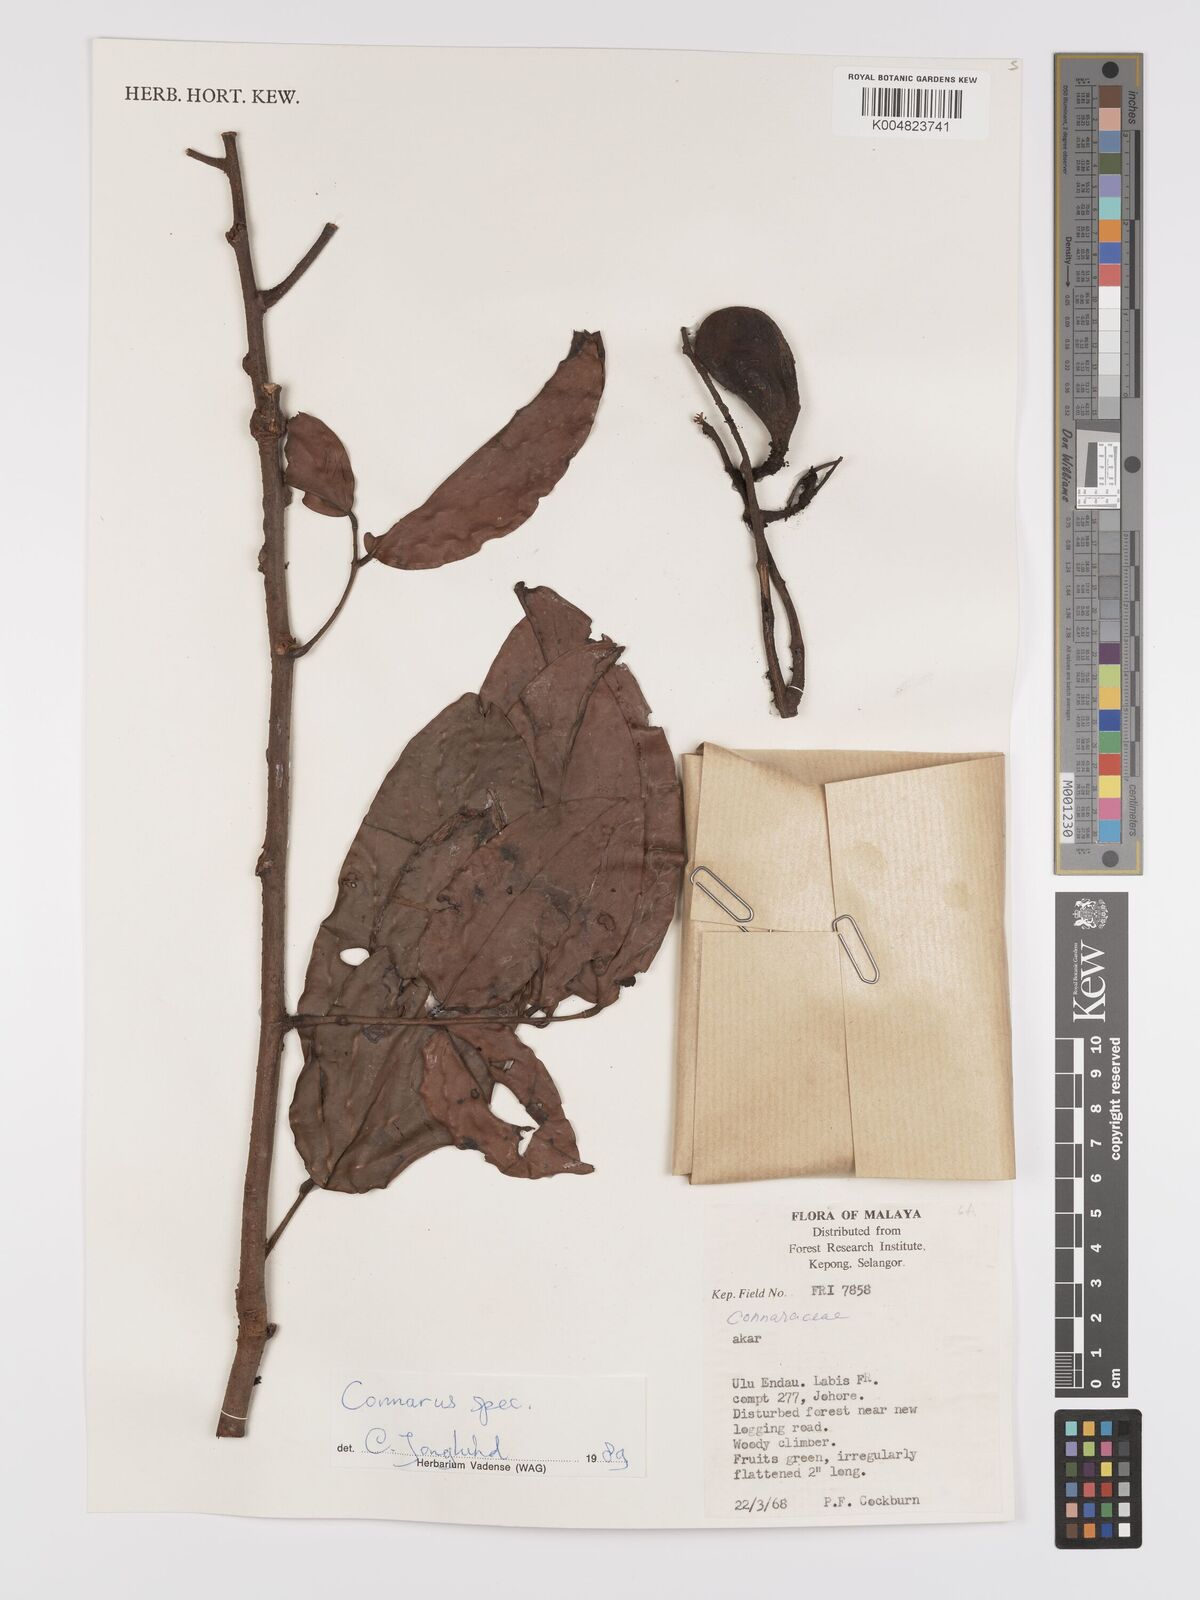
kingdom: Plantae
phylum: Tracheophyta
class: Magnoliopsida
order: Oxalidales
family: Connaraceae
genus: Connarus
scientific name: Connarus
